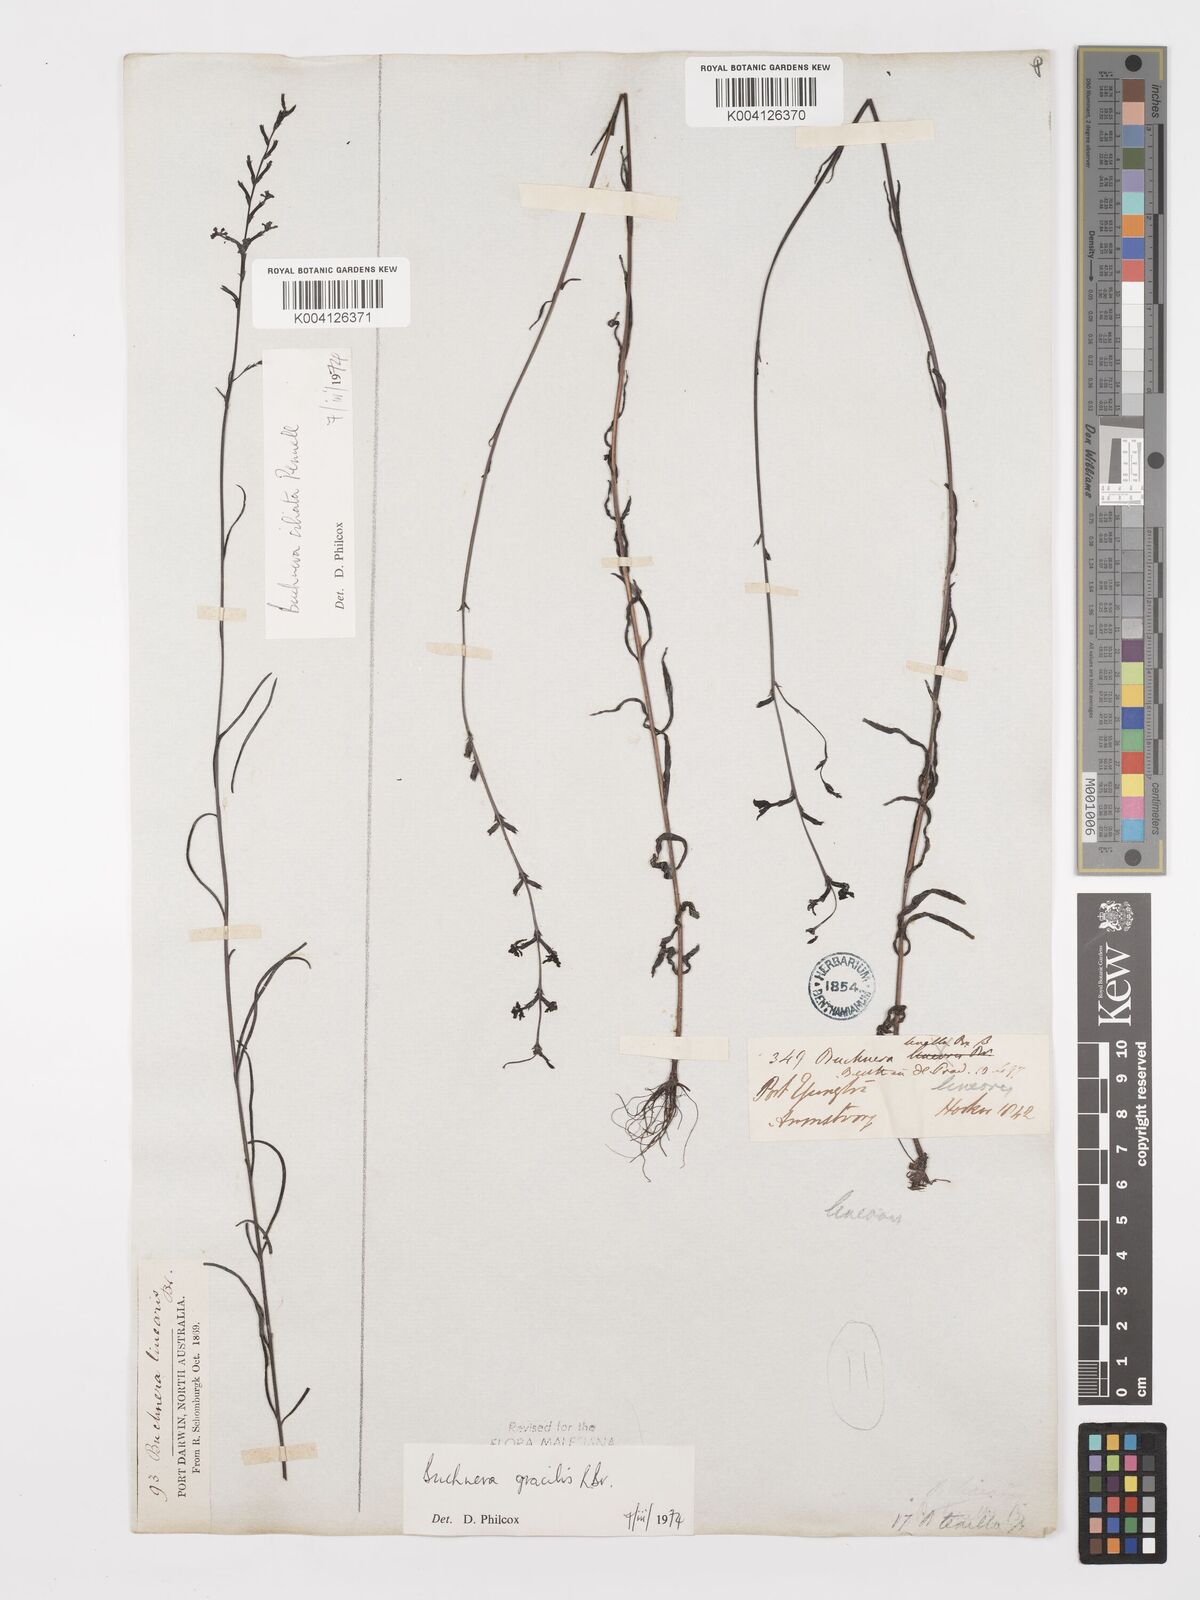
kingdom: Plantae
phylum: Tracheophyta
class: Magnoliopsida
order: Lamiales
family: Orobanchaceae
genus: Buchnera
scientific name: Buchnera gracilis
